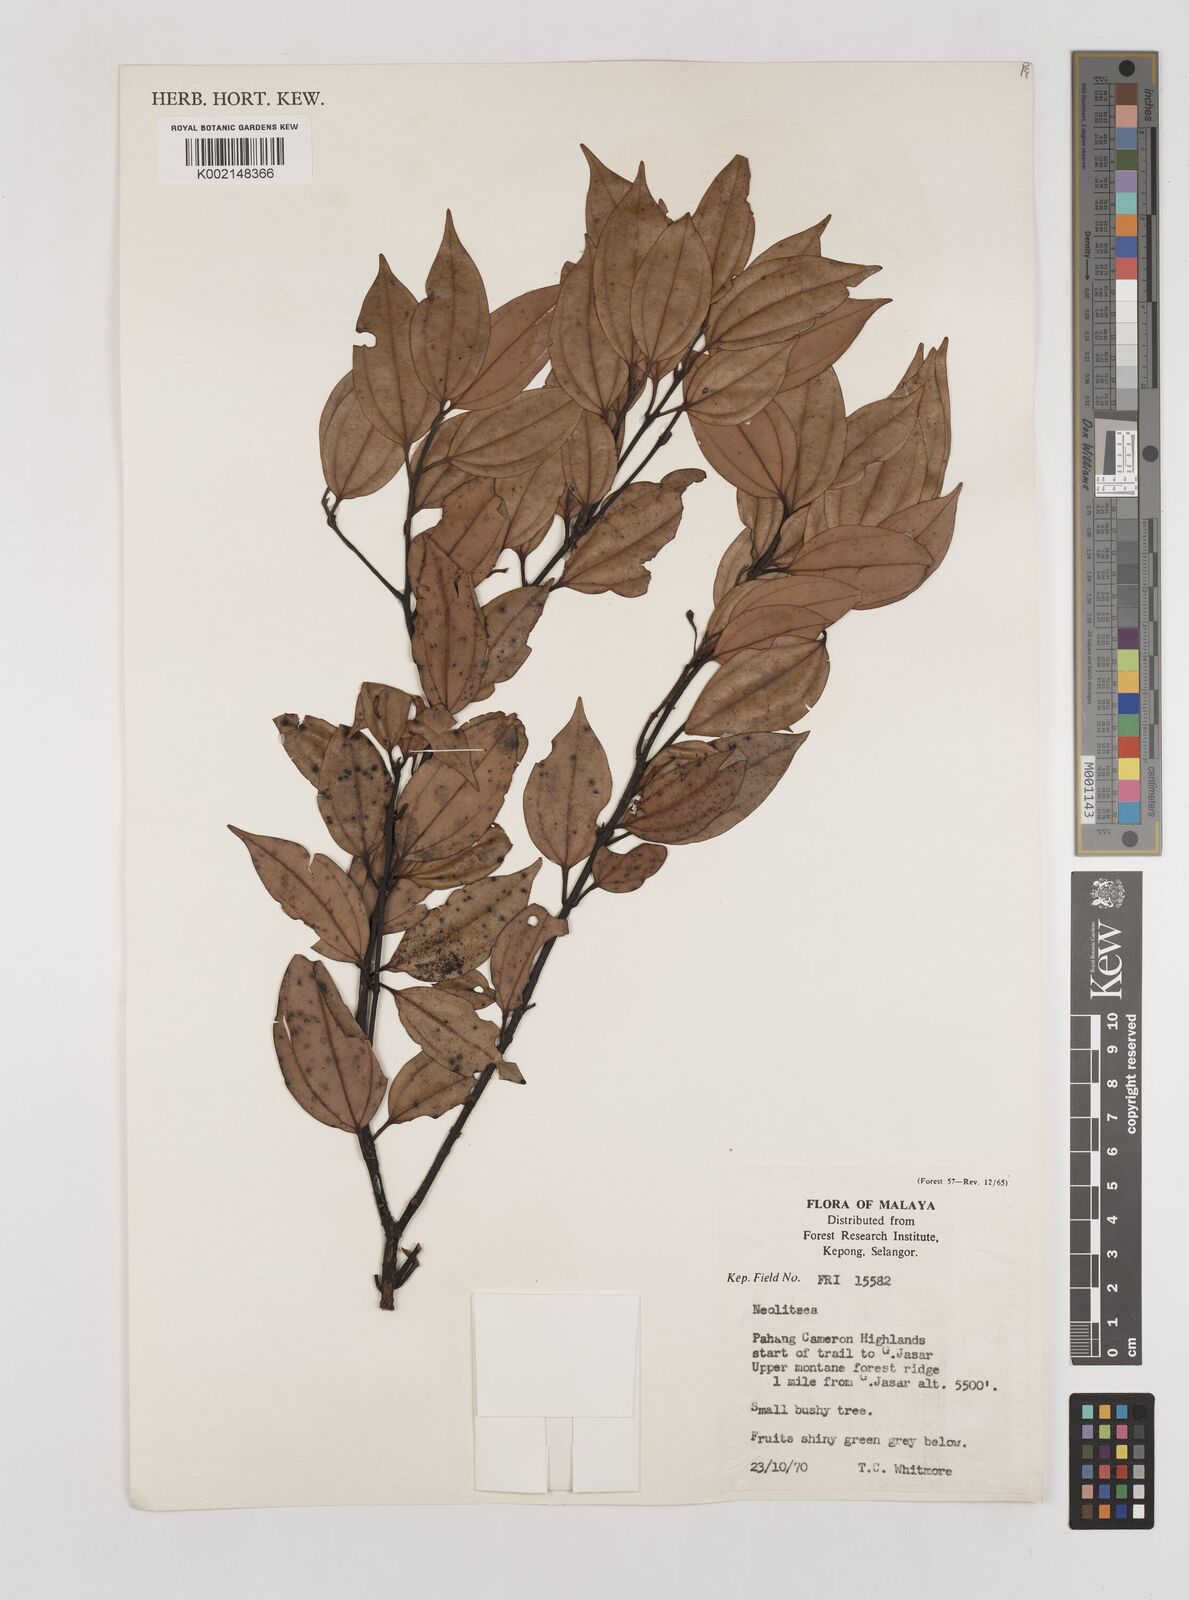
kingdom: Plantae
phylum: Tracheophyta
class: Magnoliopsida
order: Laurales
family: Lauraceae
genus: Neolitsea
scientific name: Neolitsea
